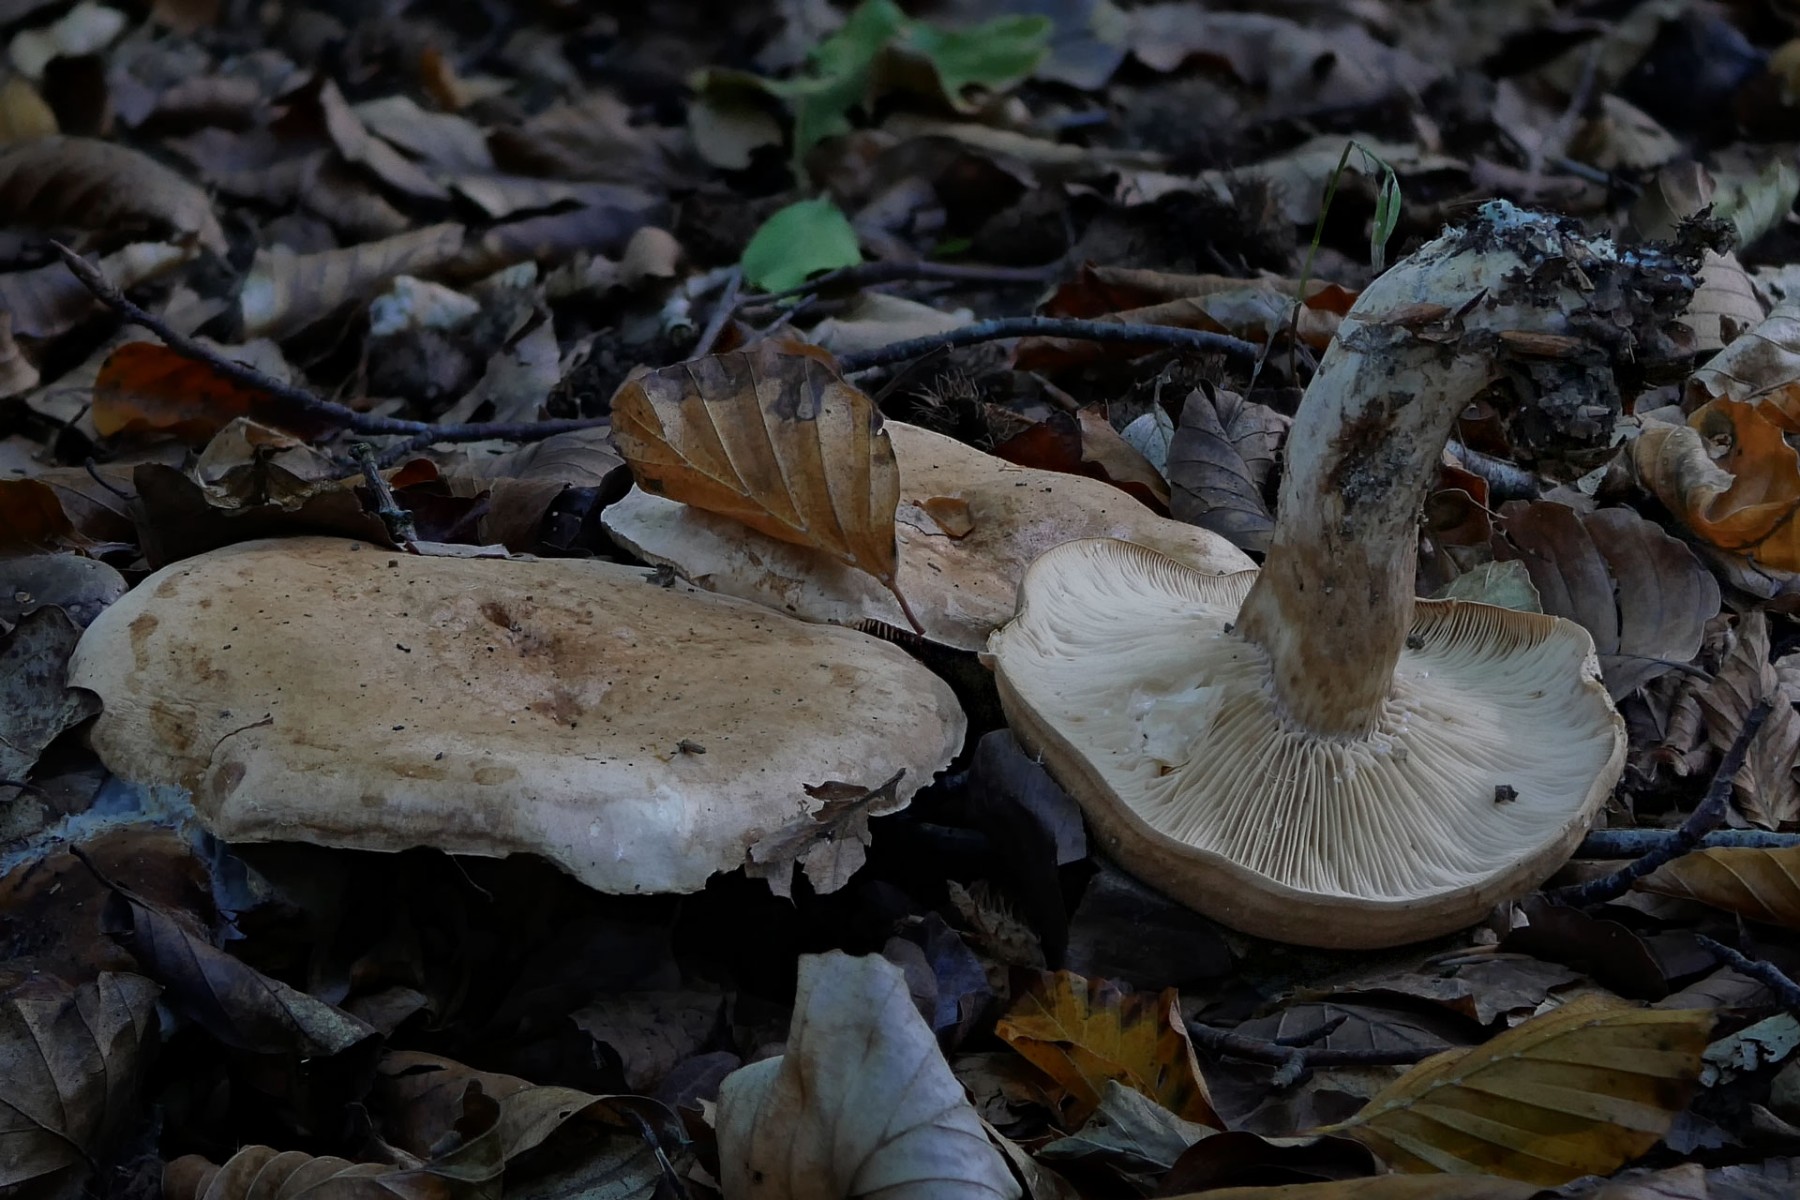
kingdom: Fungi
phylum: Basidiomycota
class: Agaricomycetes
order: Russulales
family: Russulaceae
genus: Lactarius
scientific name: Lactarius pallidus
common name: bleg mælkehat
